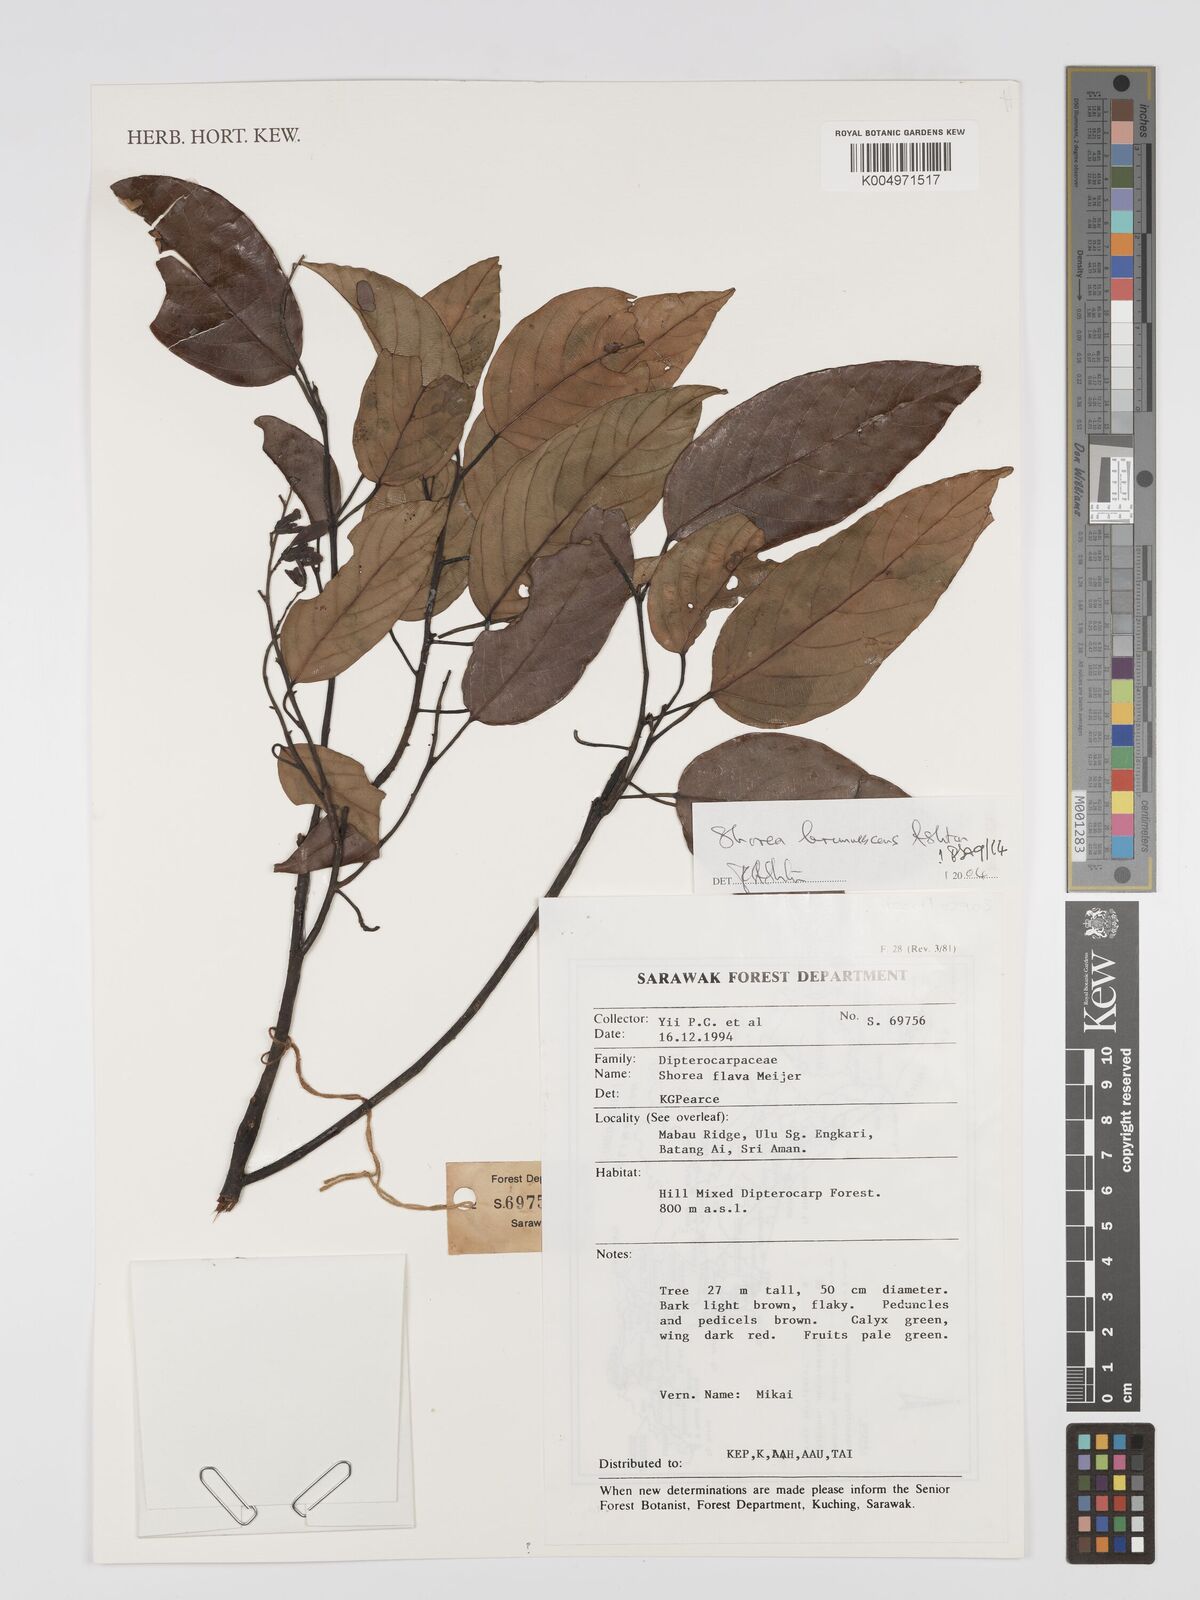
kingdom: Plantae
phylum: Tracheophyta
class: Magnoliopsida
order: Malvales
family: Dipterocarpaceae
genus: Shorea
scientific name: Shorea brunnescens
